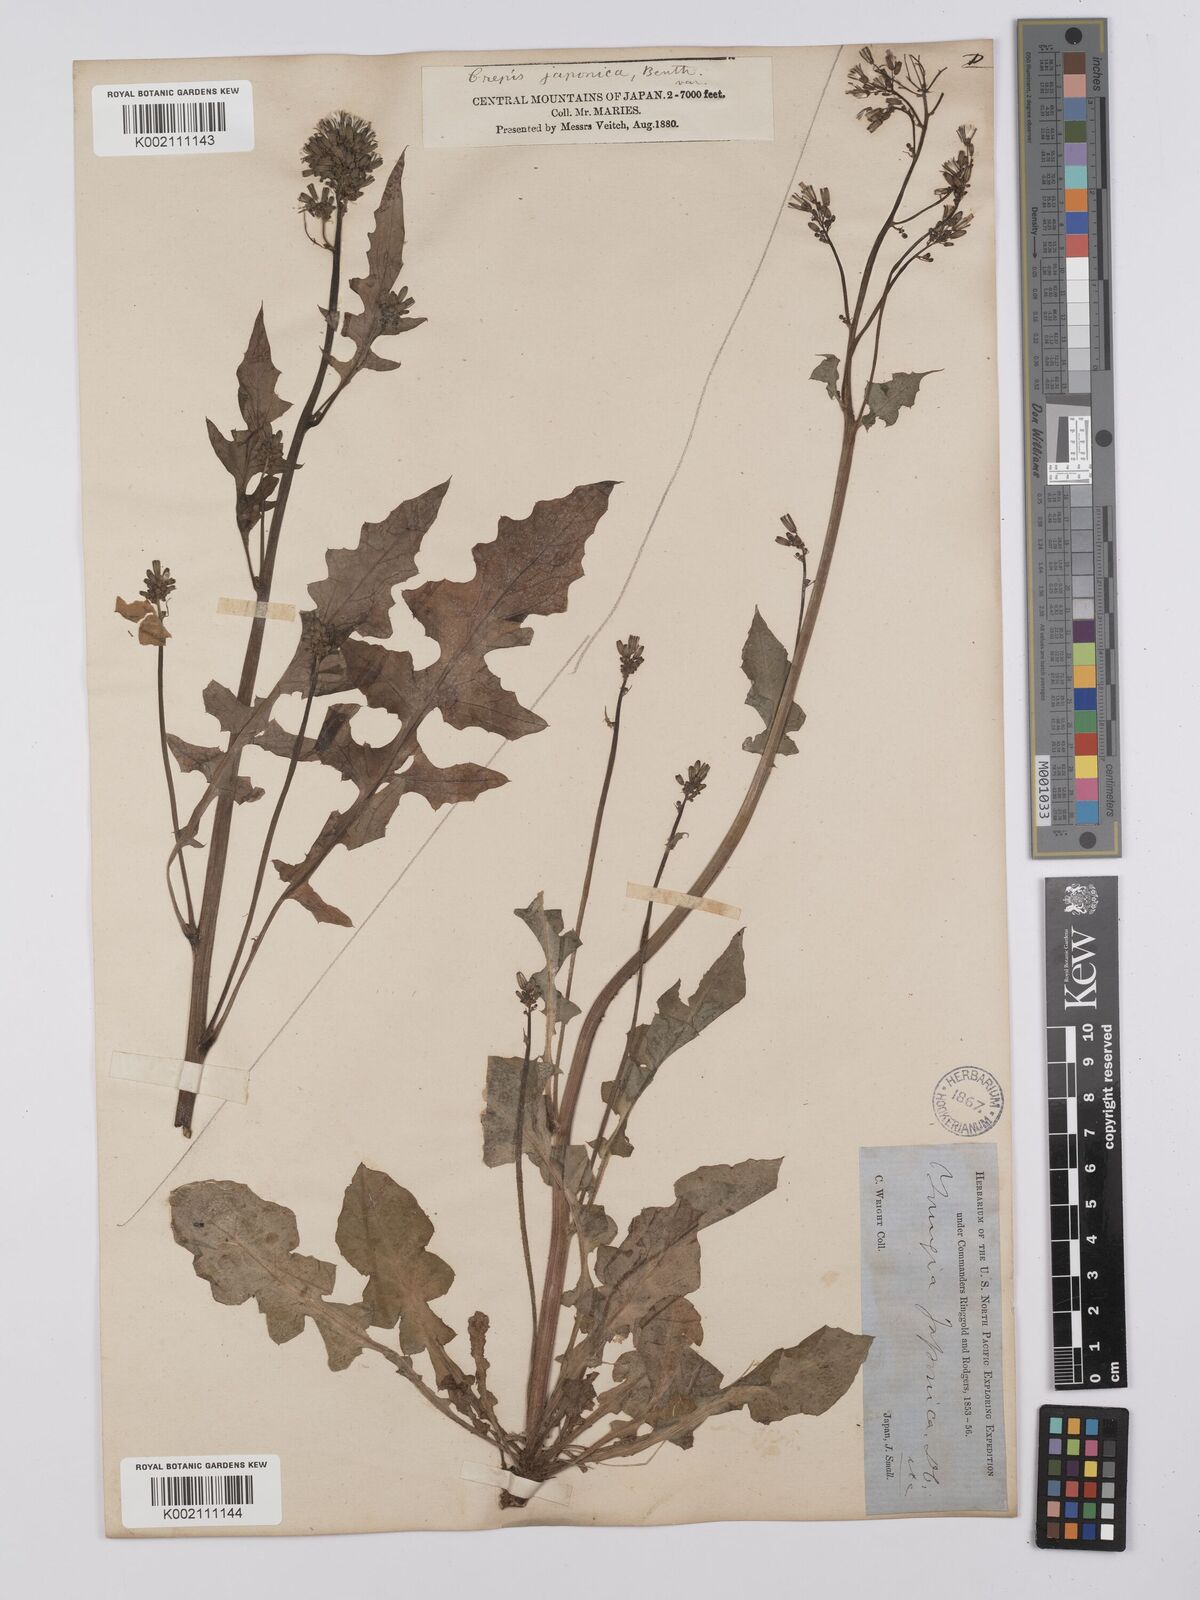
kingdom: Plantae
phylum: Tracheophyta
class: Magnoliopsida
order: Asterales
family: Asteraceae
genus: Youngia
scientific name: Youngia japonica
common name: Oriental false hawksbeard
